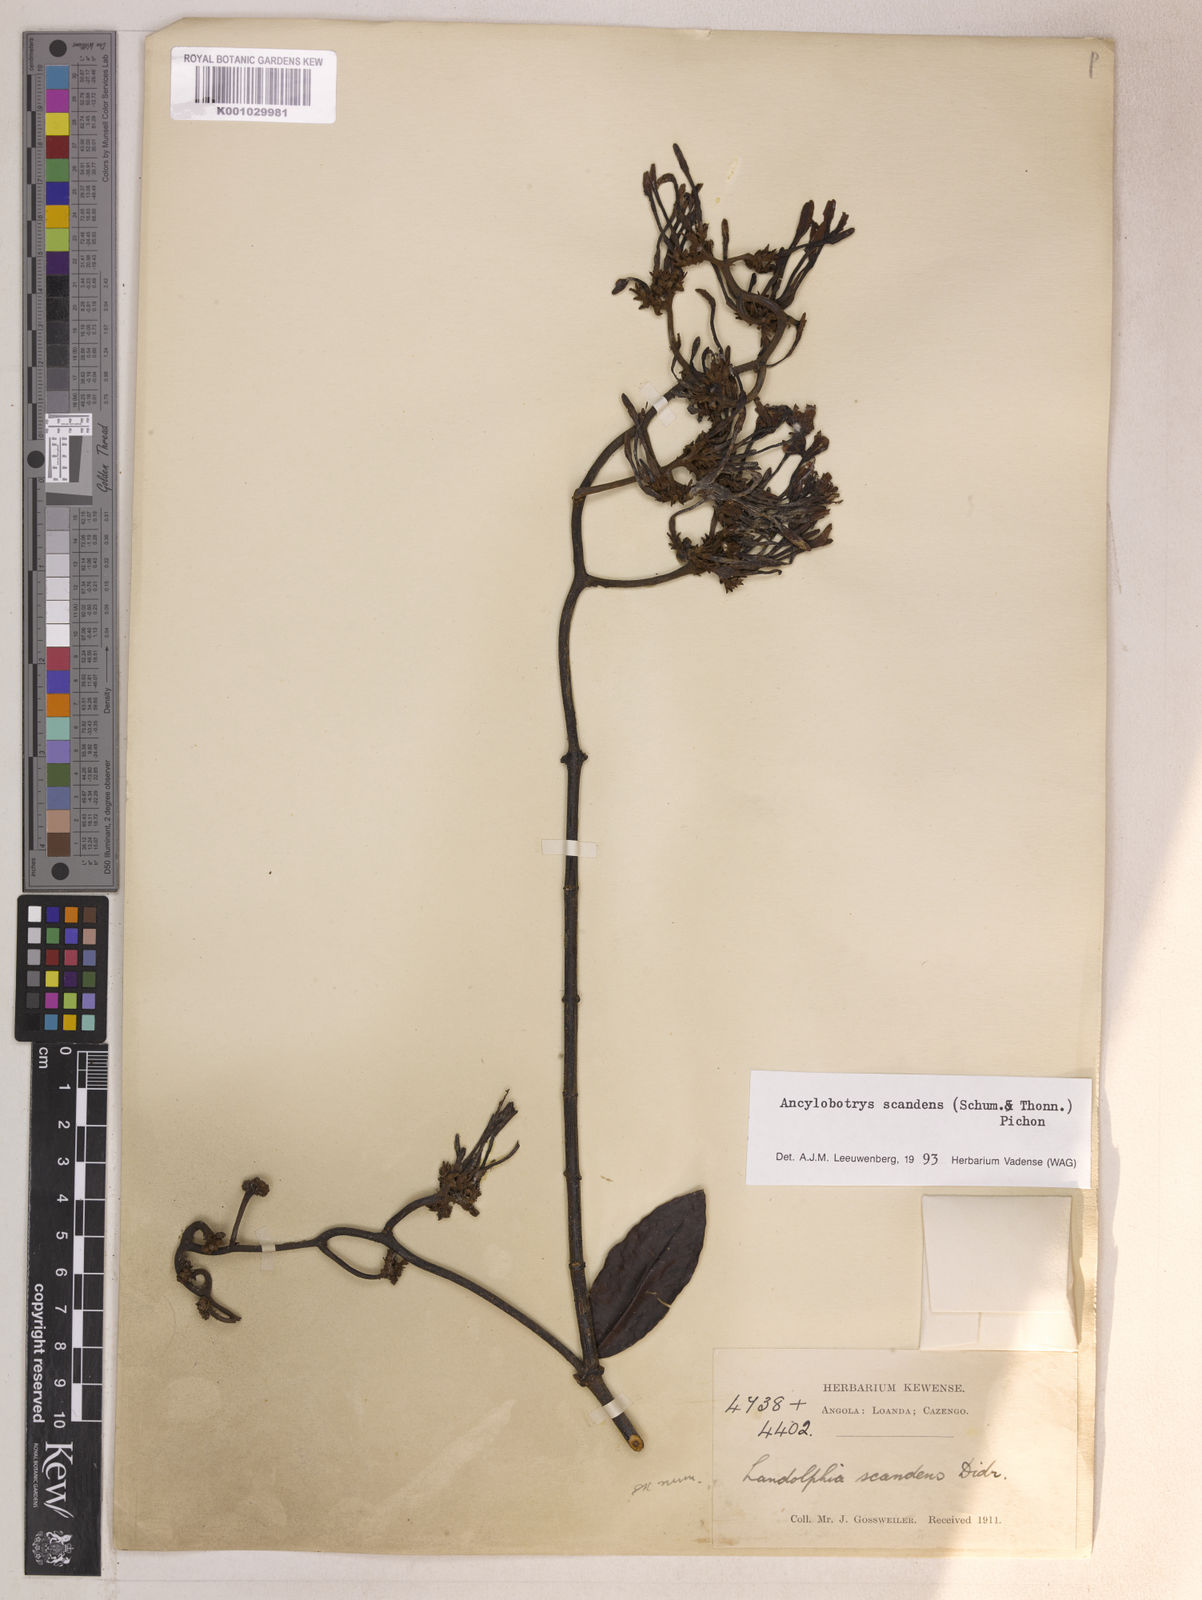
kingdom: Plantae
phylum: Tracheophyta
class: Magnoliopsida
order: Gentianales
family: Apocynaceae
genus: Ancylobothrys
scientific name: Ancylobothrys scandens
